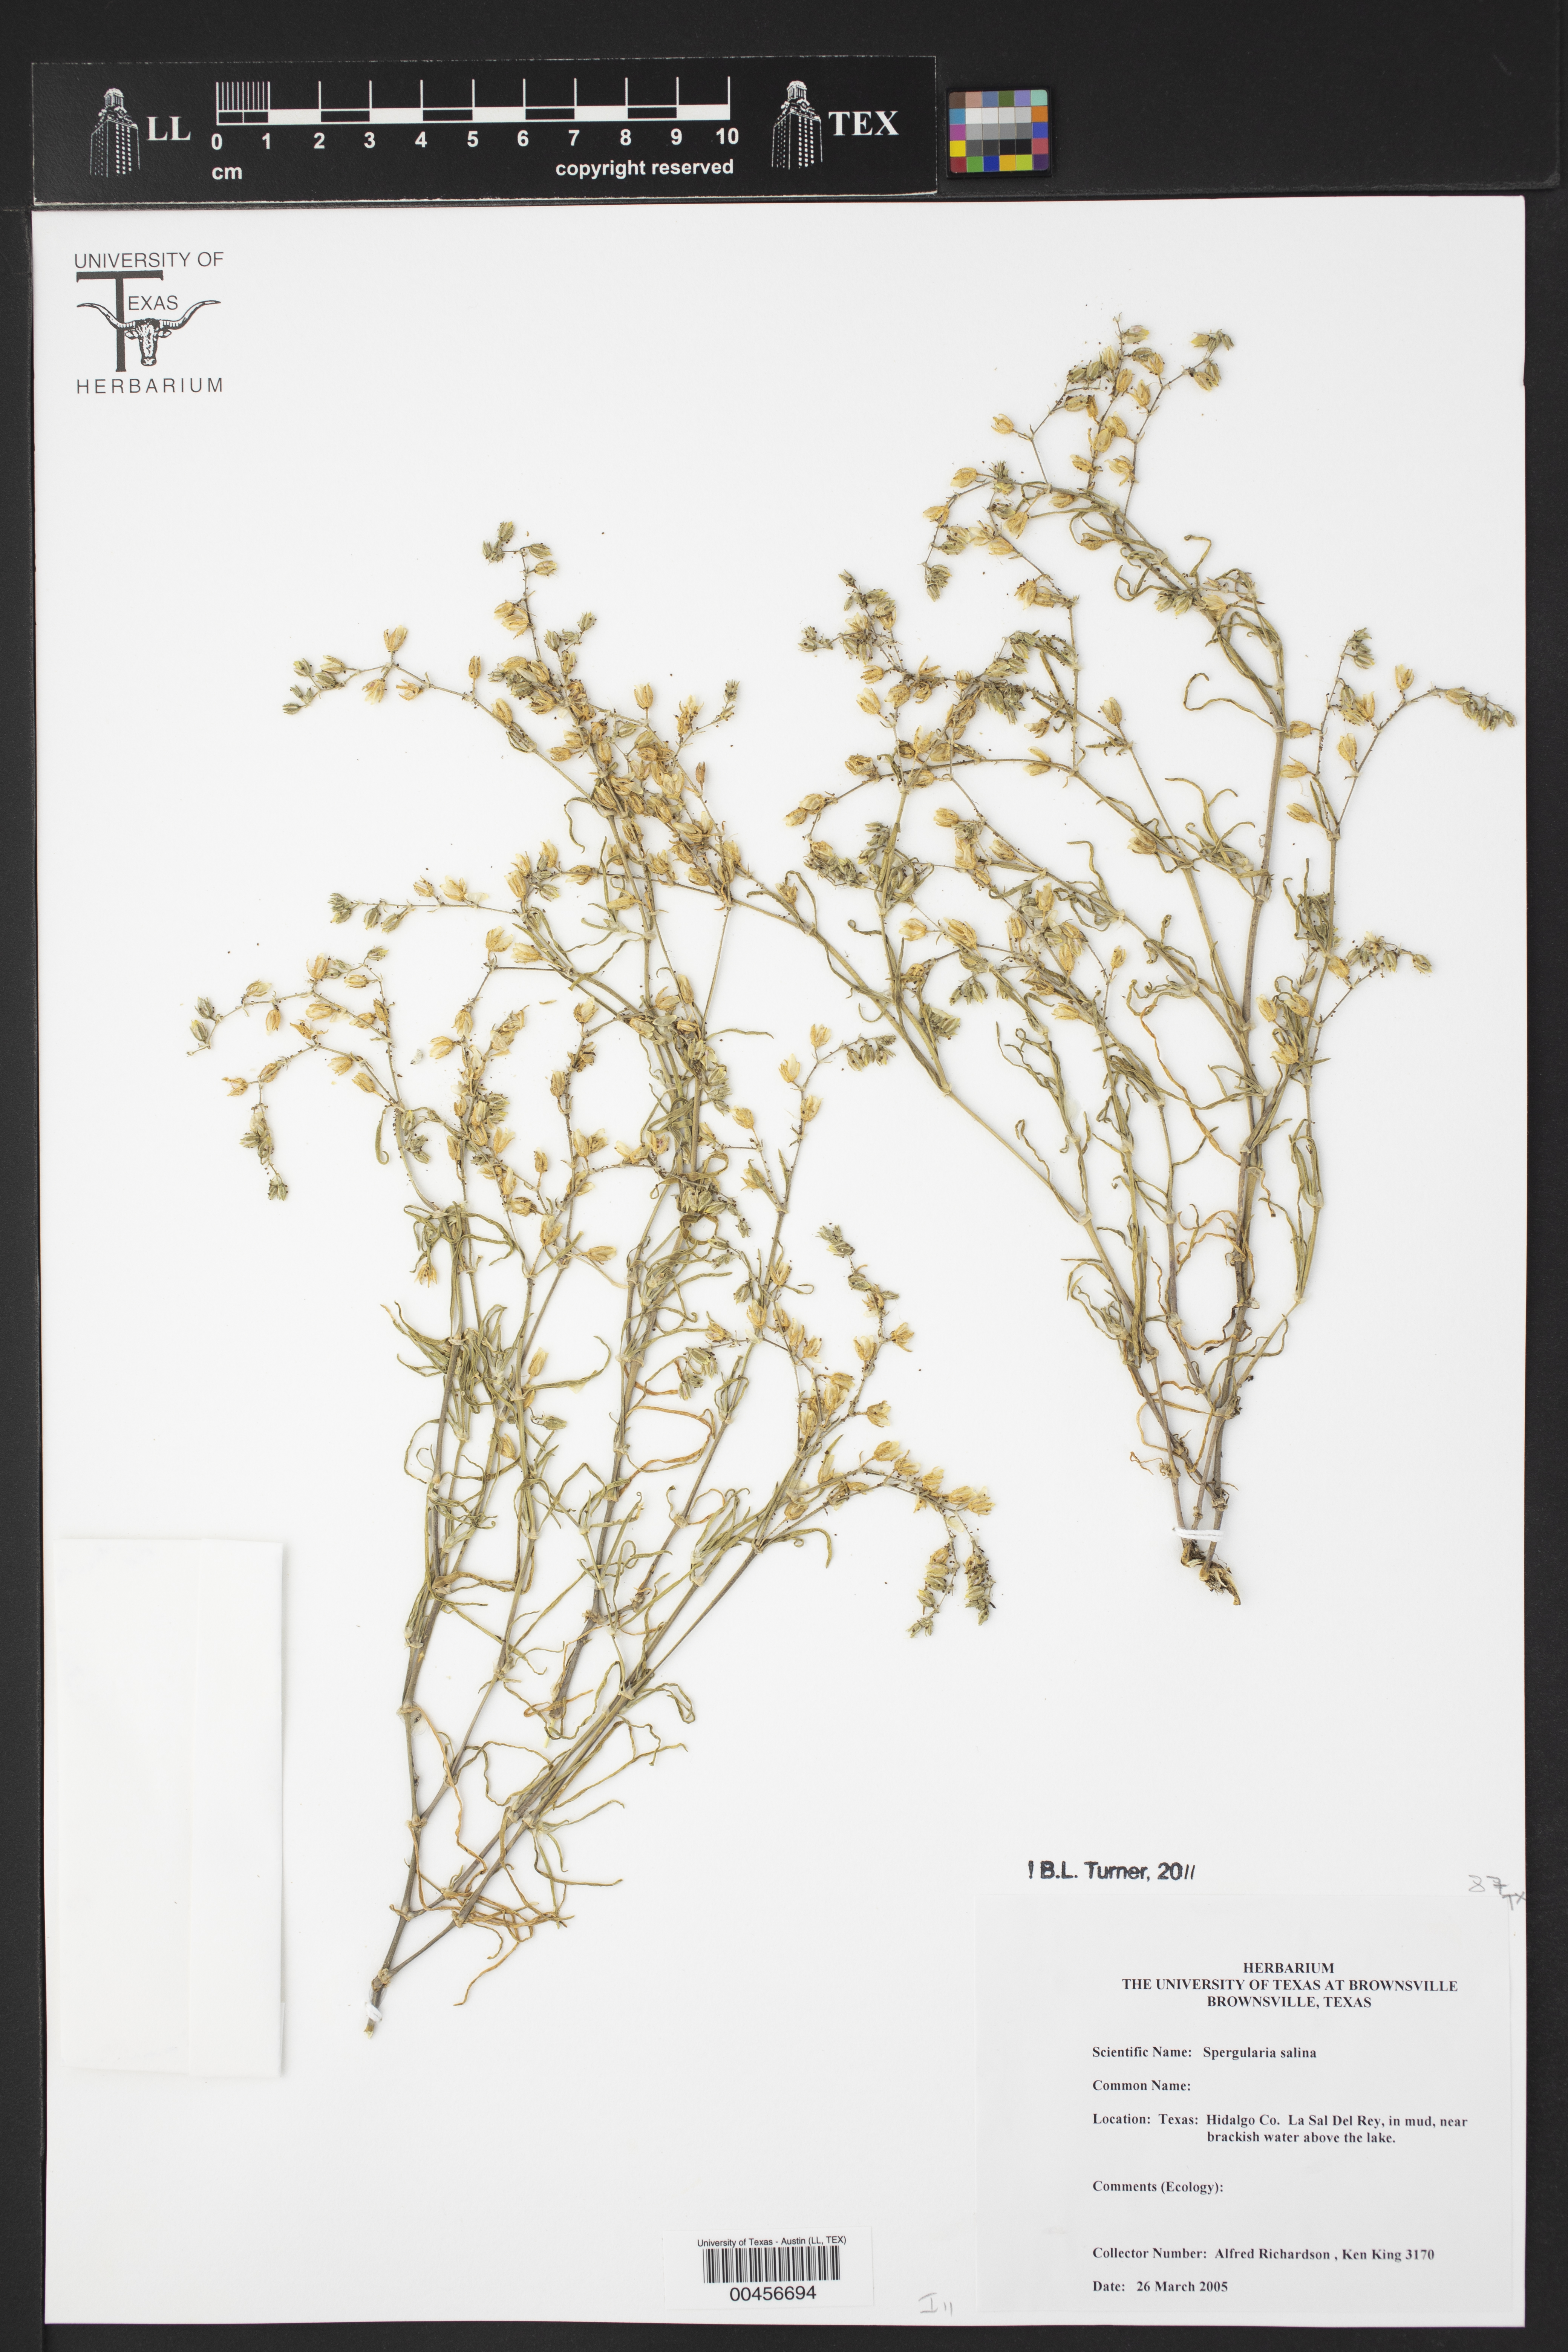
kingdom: Plantae
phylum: Tracheophyta
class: Magnoliopsida
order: Caryophyllales
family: Caryophyllaceae
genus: Spergularia
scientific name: Spergularia marina
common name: Lesser sea-spurrey
